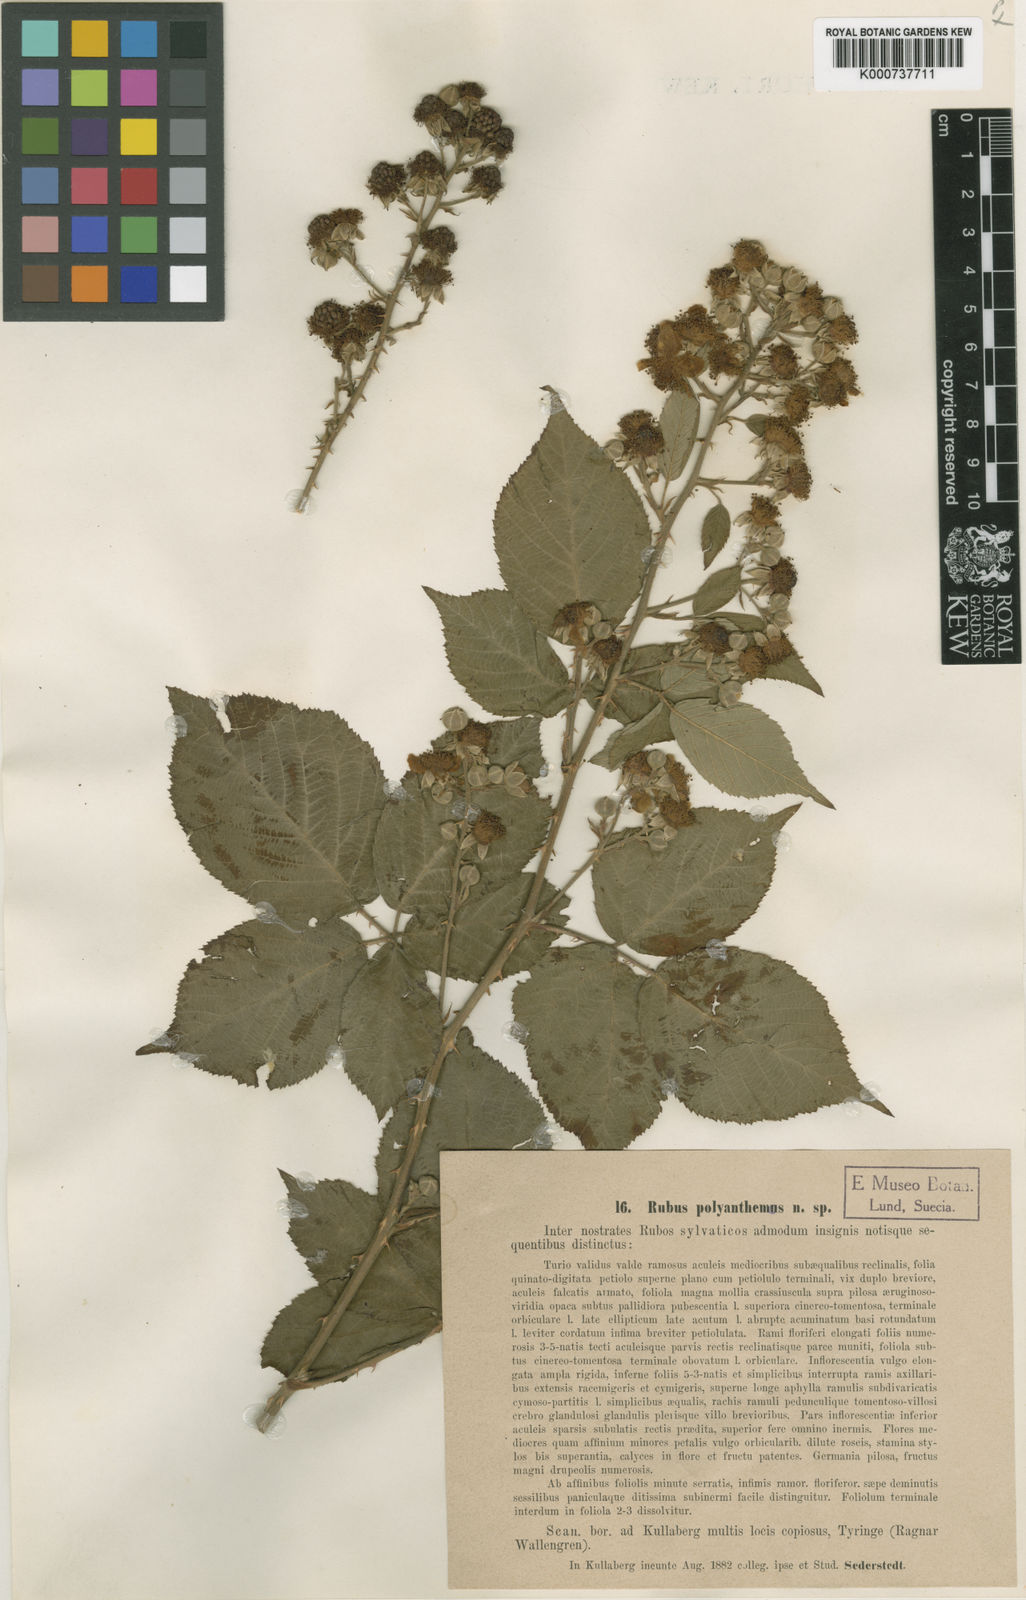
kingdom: Plantae
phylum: Tracheophyta
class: Magnoliopsida
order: Rosales
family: Rosaceae
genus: Rubus
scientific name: Rubus polyanthemus
